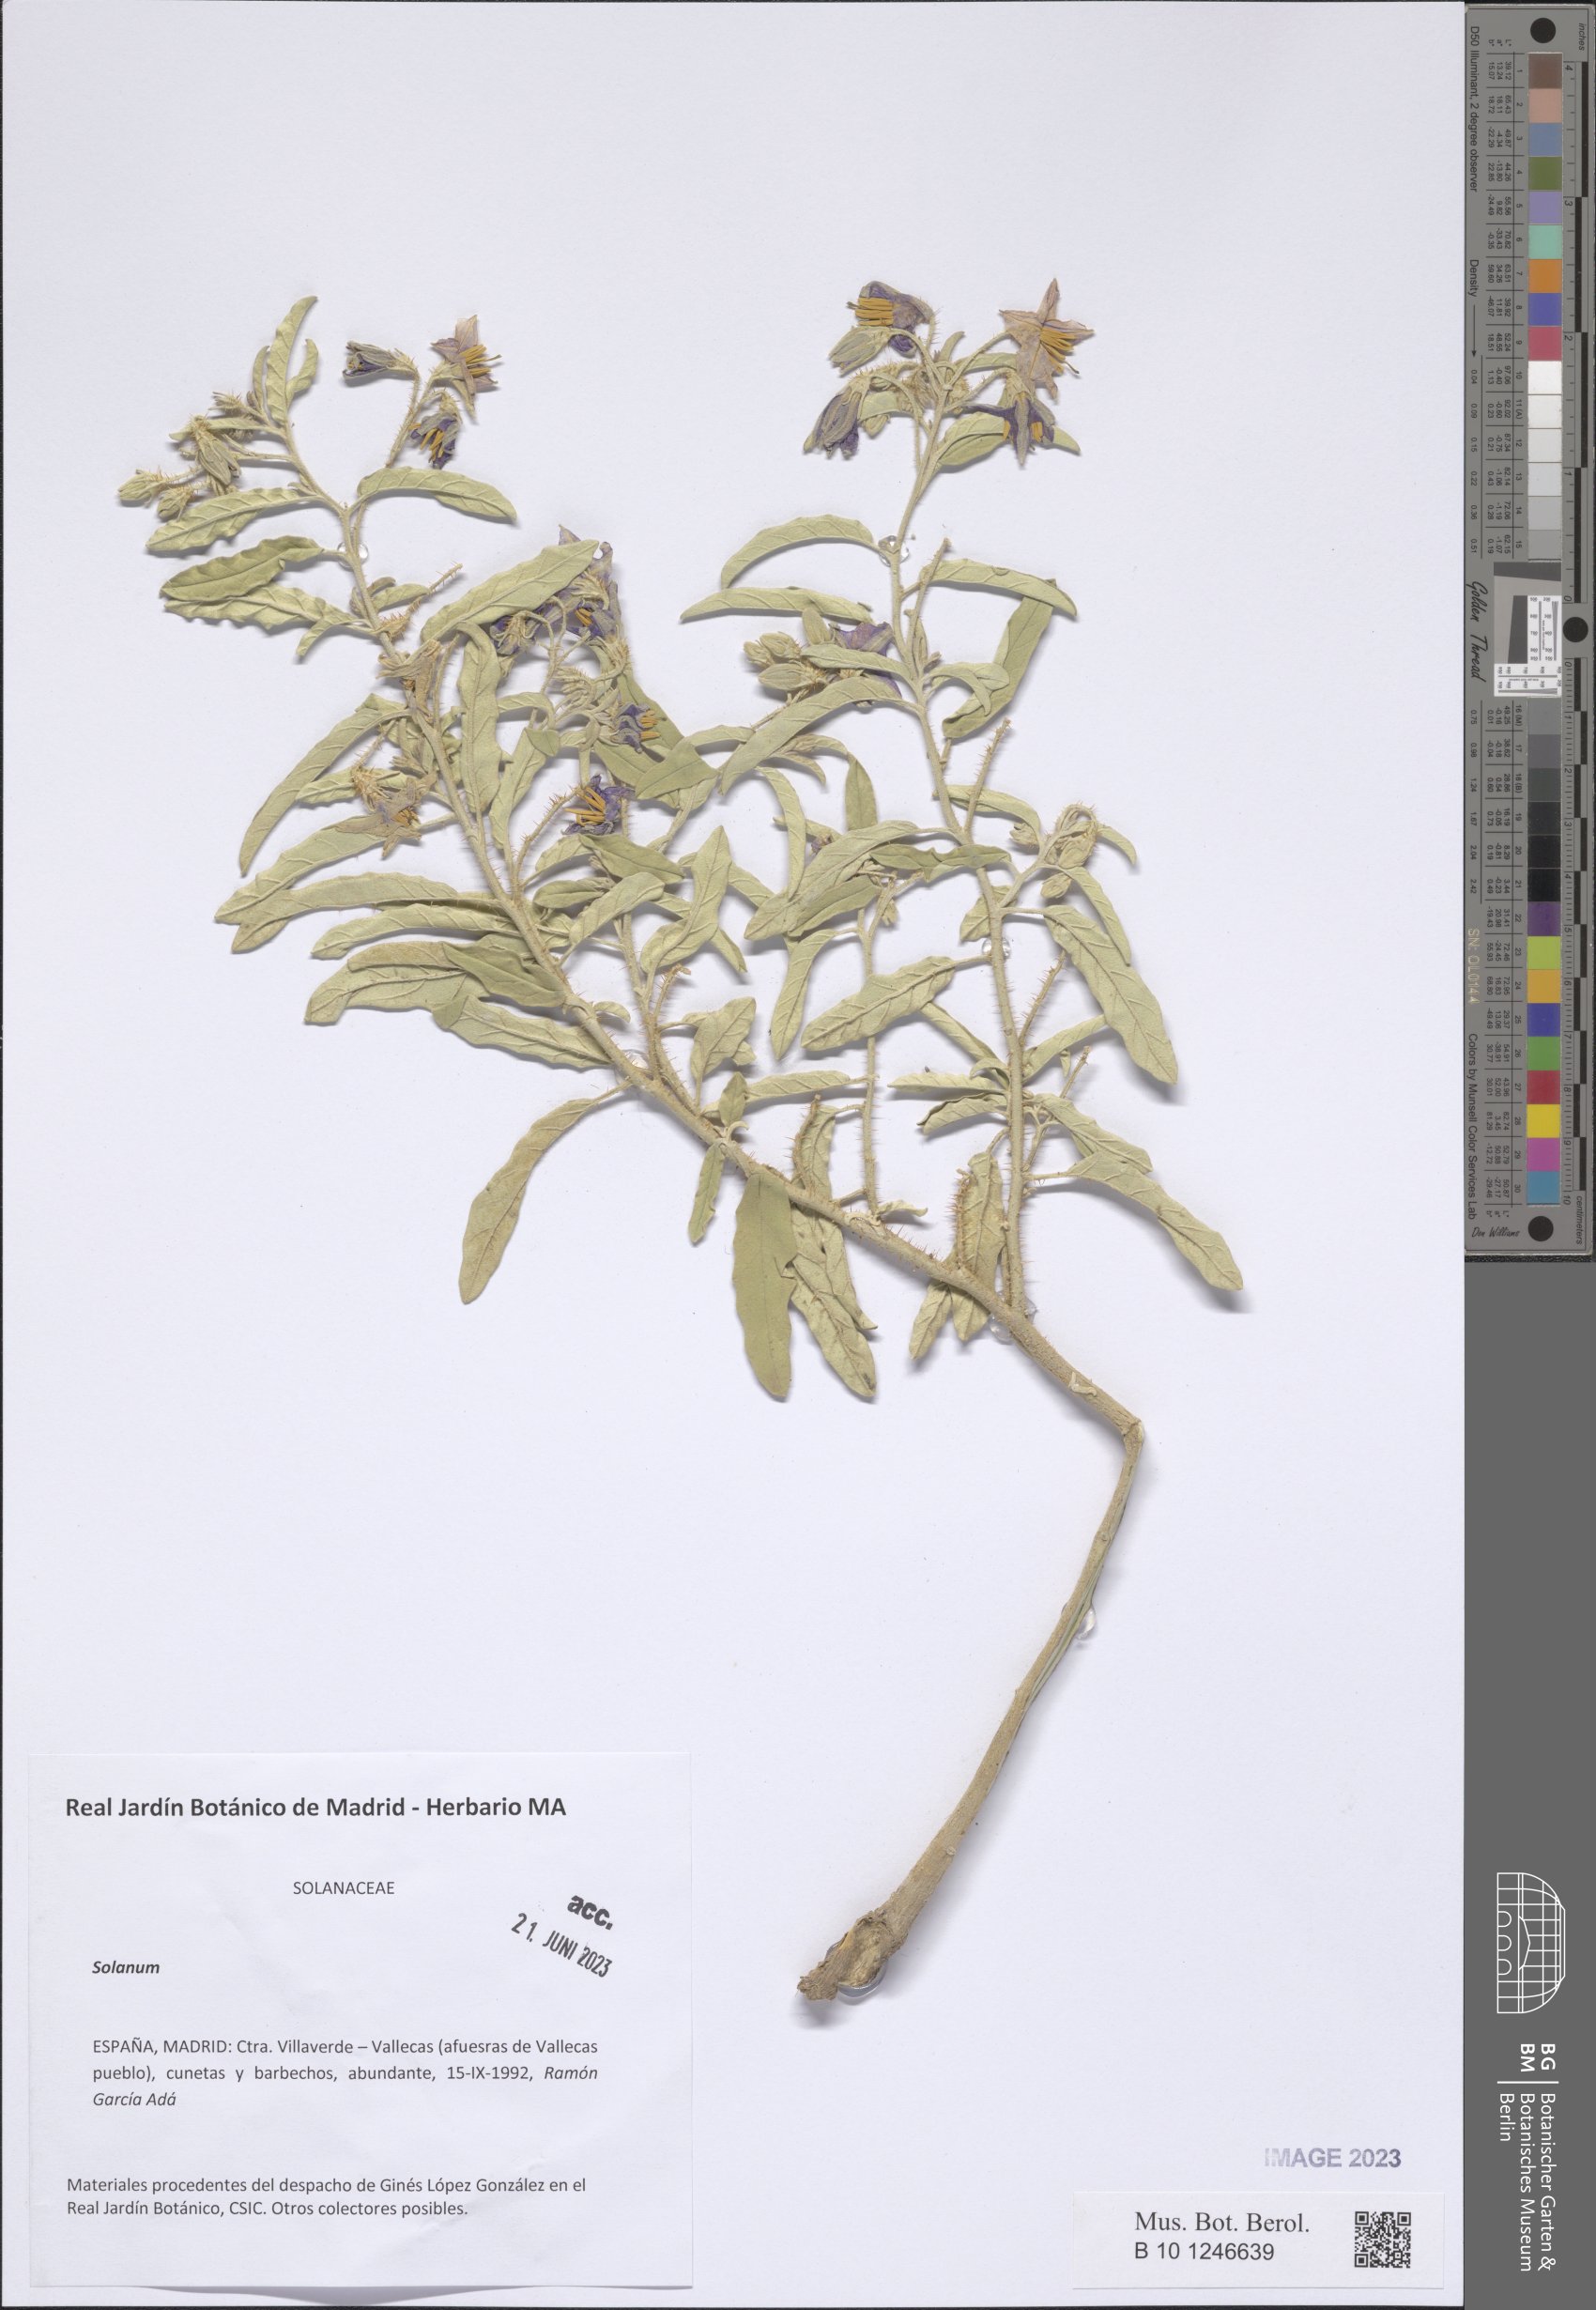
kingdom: Plantae
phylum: Tracheophyta
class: Magnoliopsida
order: Solanales
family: Solanaceae
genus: Solanum
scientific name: Solanum
